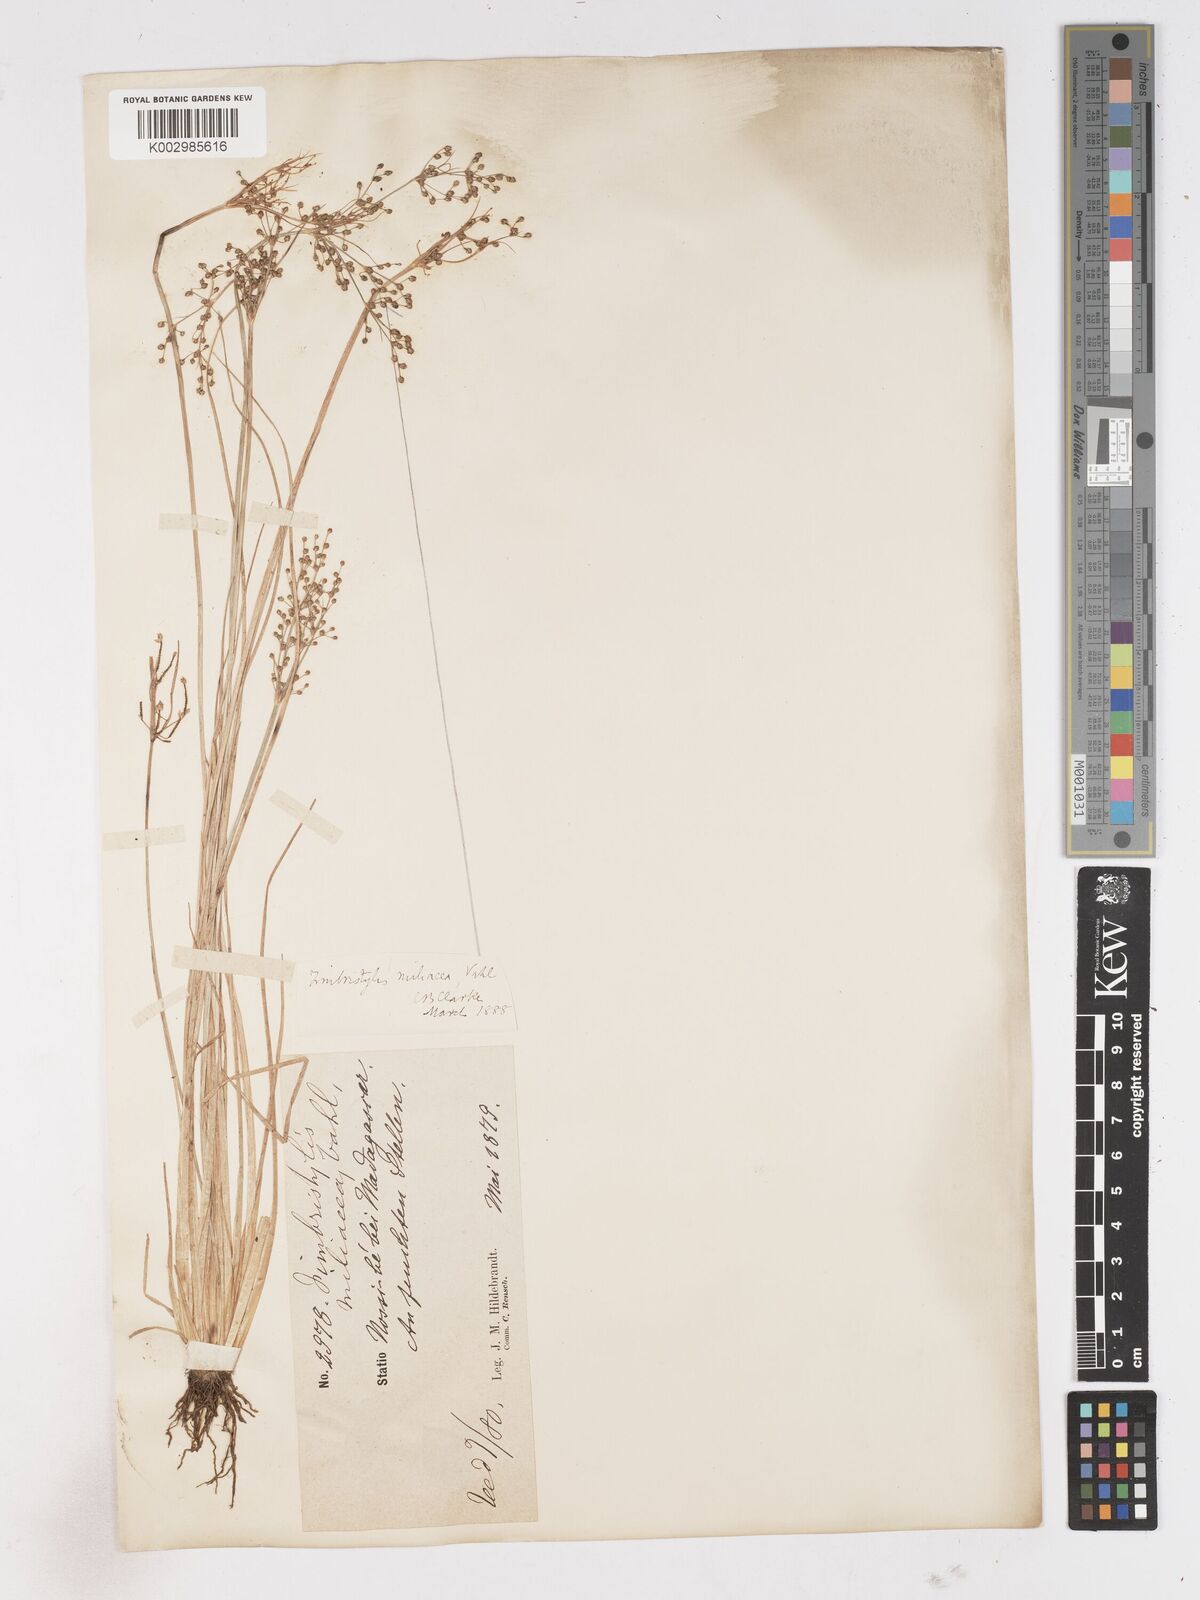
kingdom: Plantae
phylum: Tracheophyta
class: Liliopsida
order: Poales
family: Cyperaceae
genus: Fimbristylis
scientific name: Fimbristylis littoralis
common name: Fimbry
